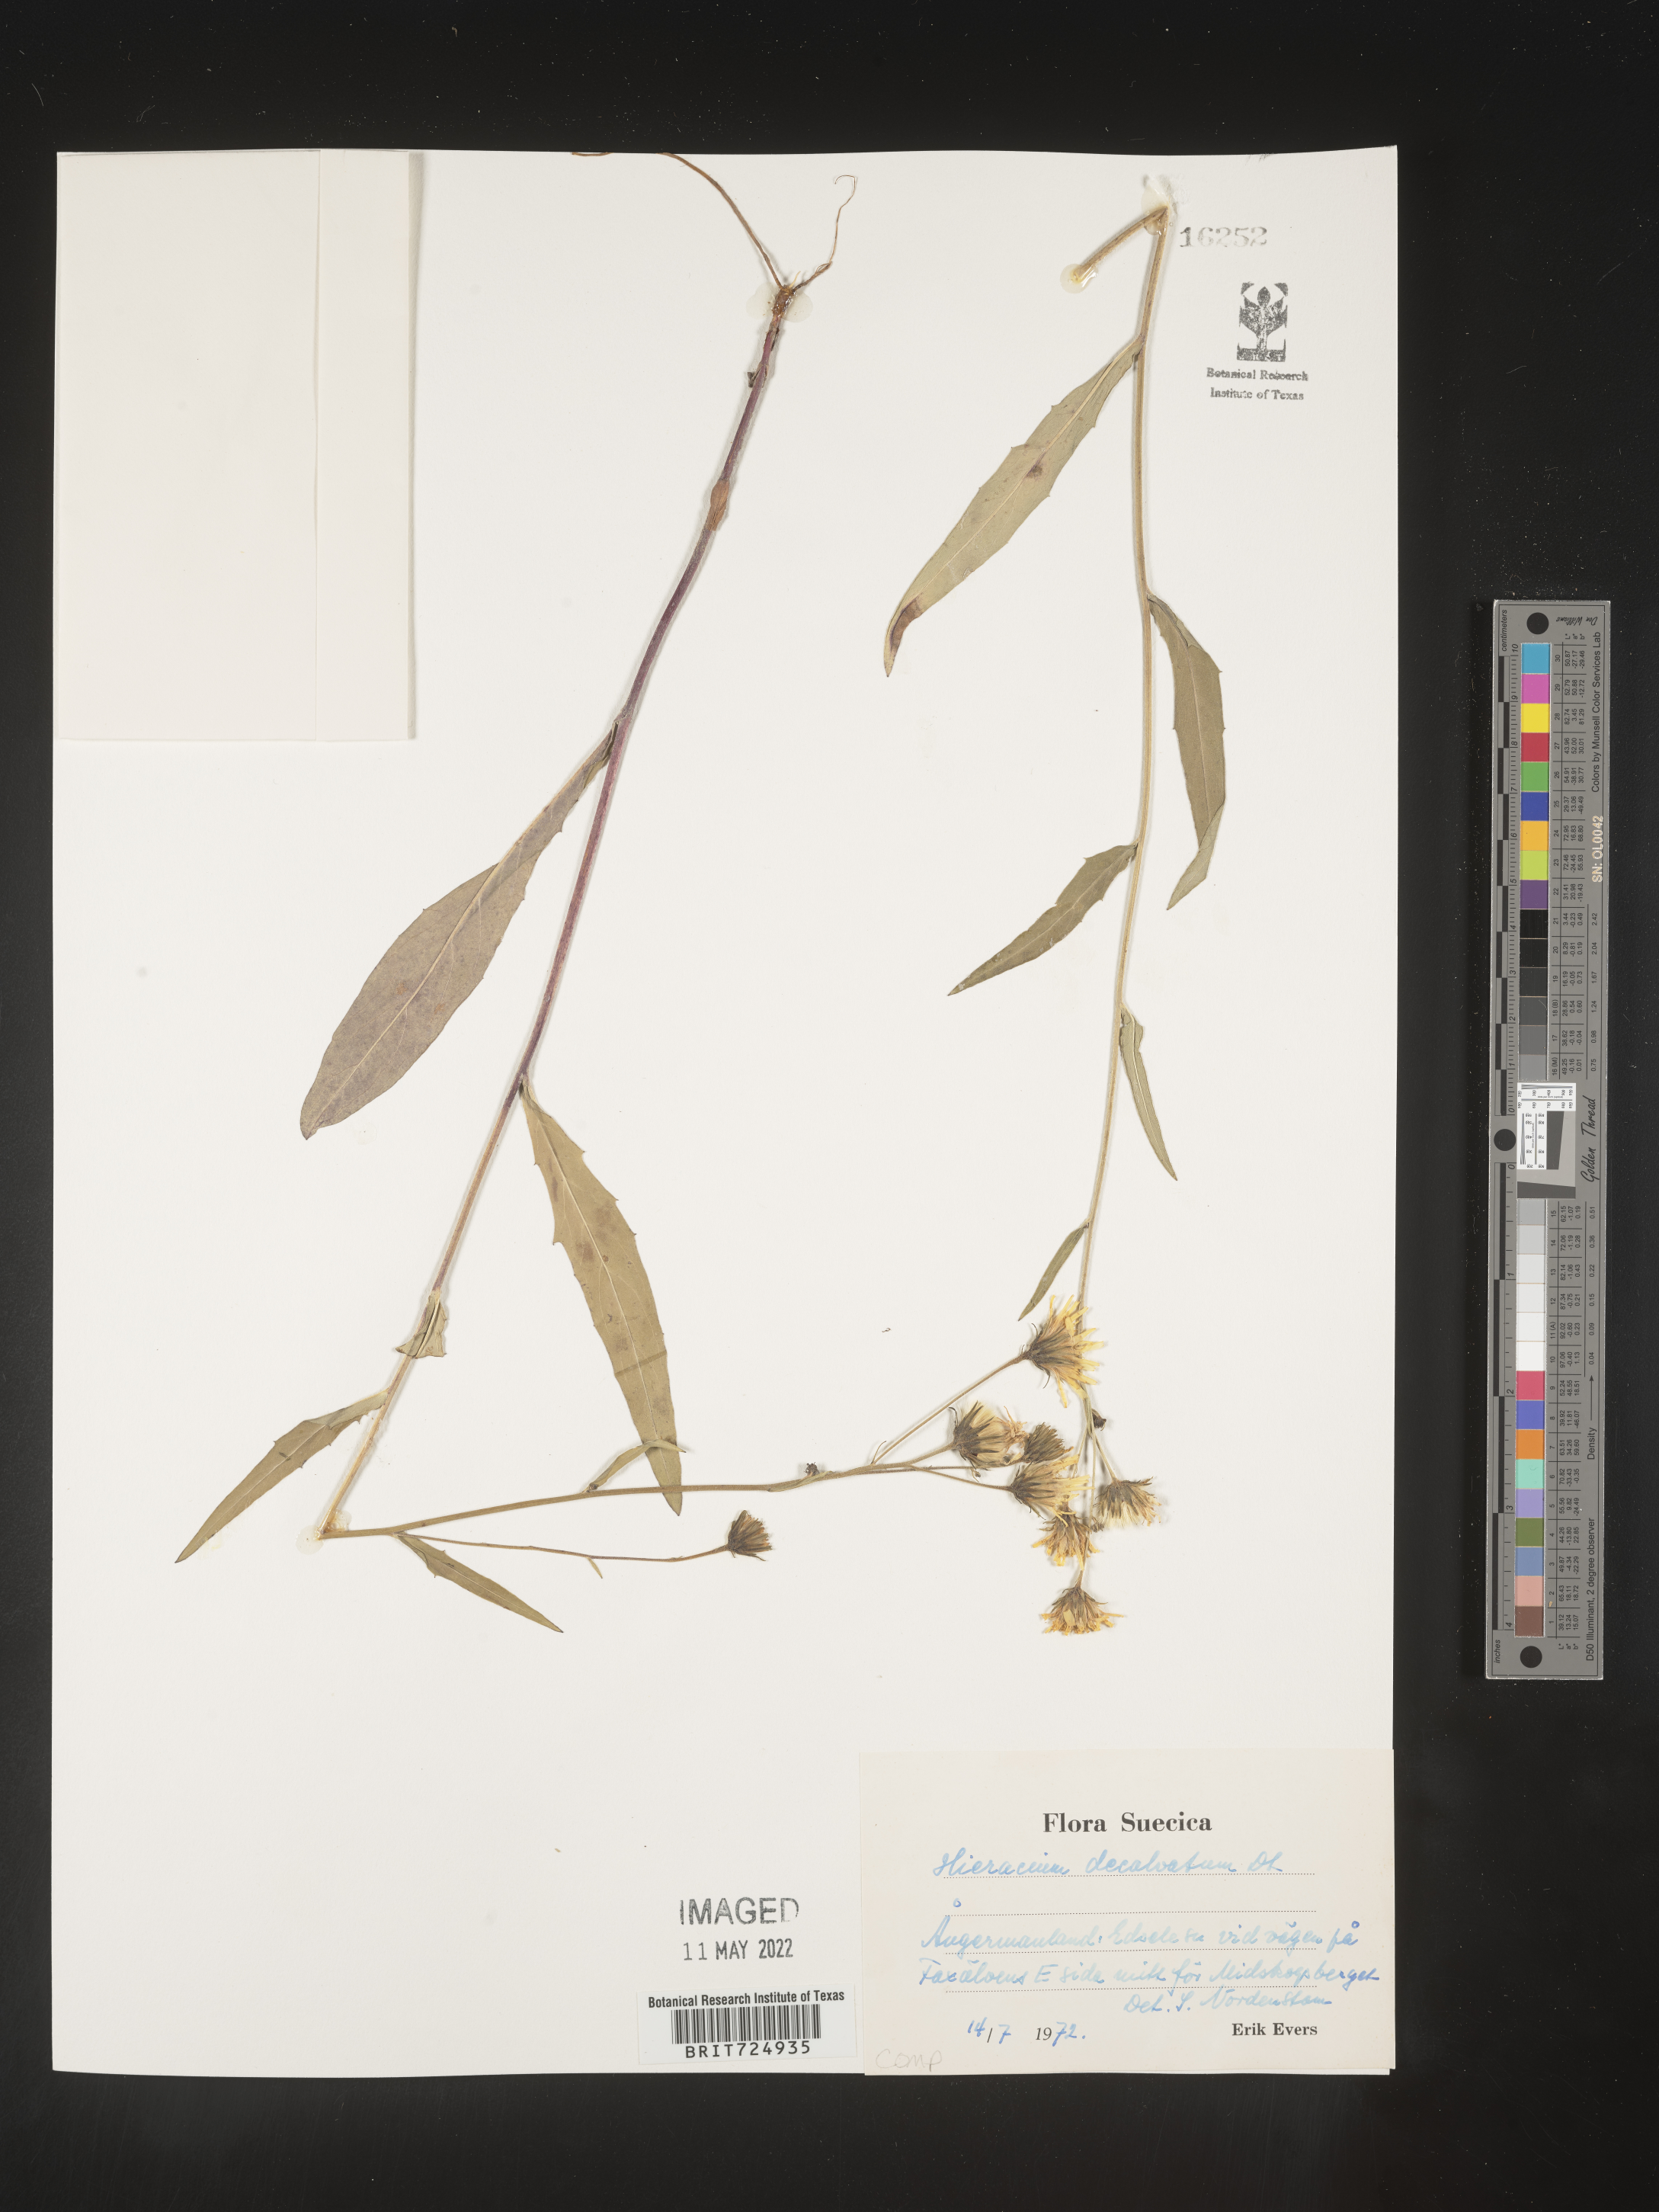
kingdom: Plantae
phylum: Tracheophyta
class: Magnoliopsida
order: Asterales
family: Asteraceae
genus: Hieracium
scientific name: Hieracium
